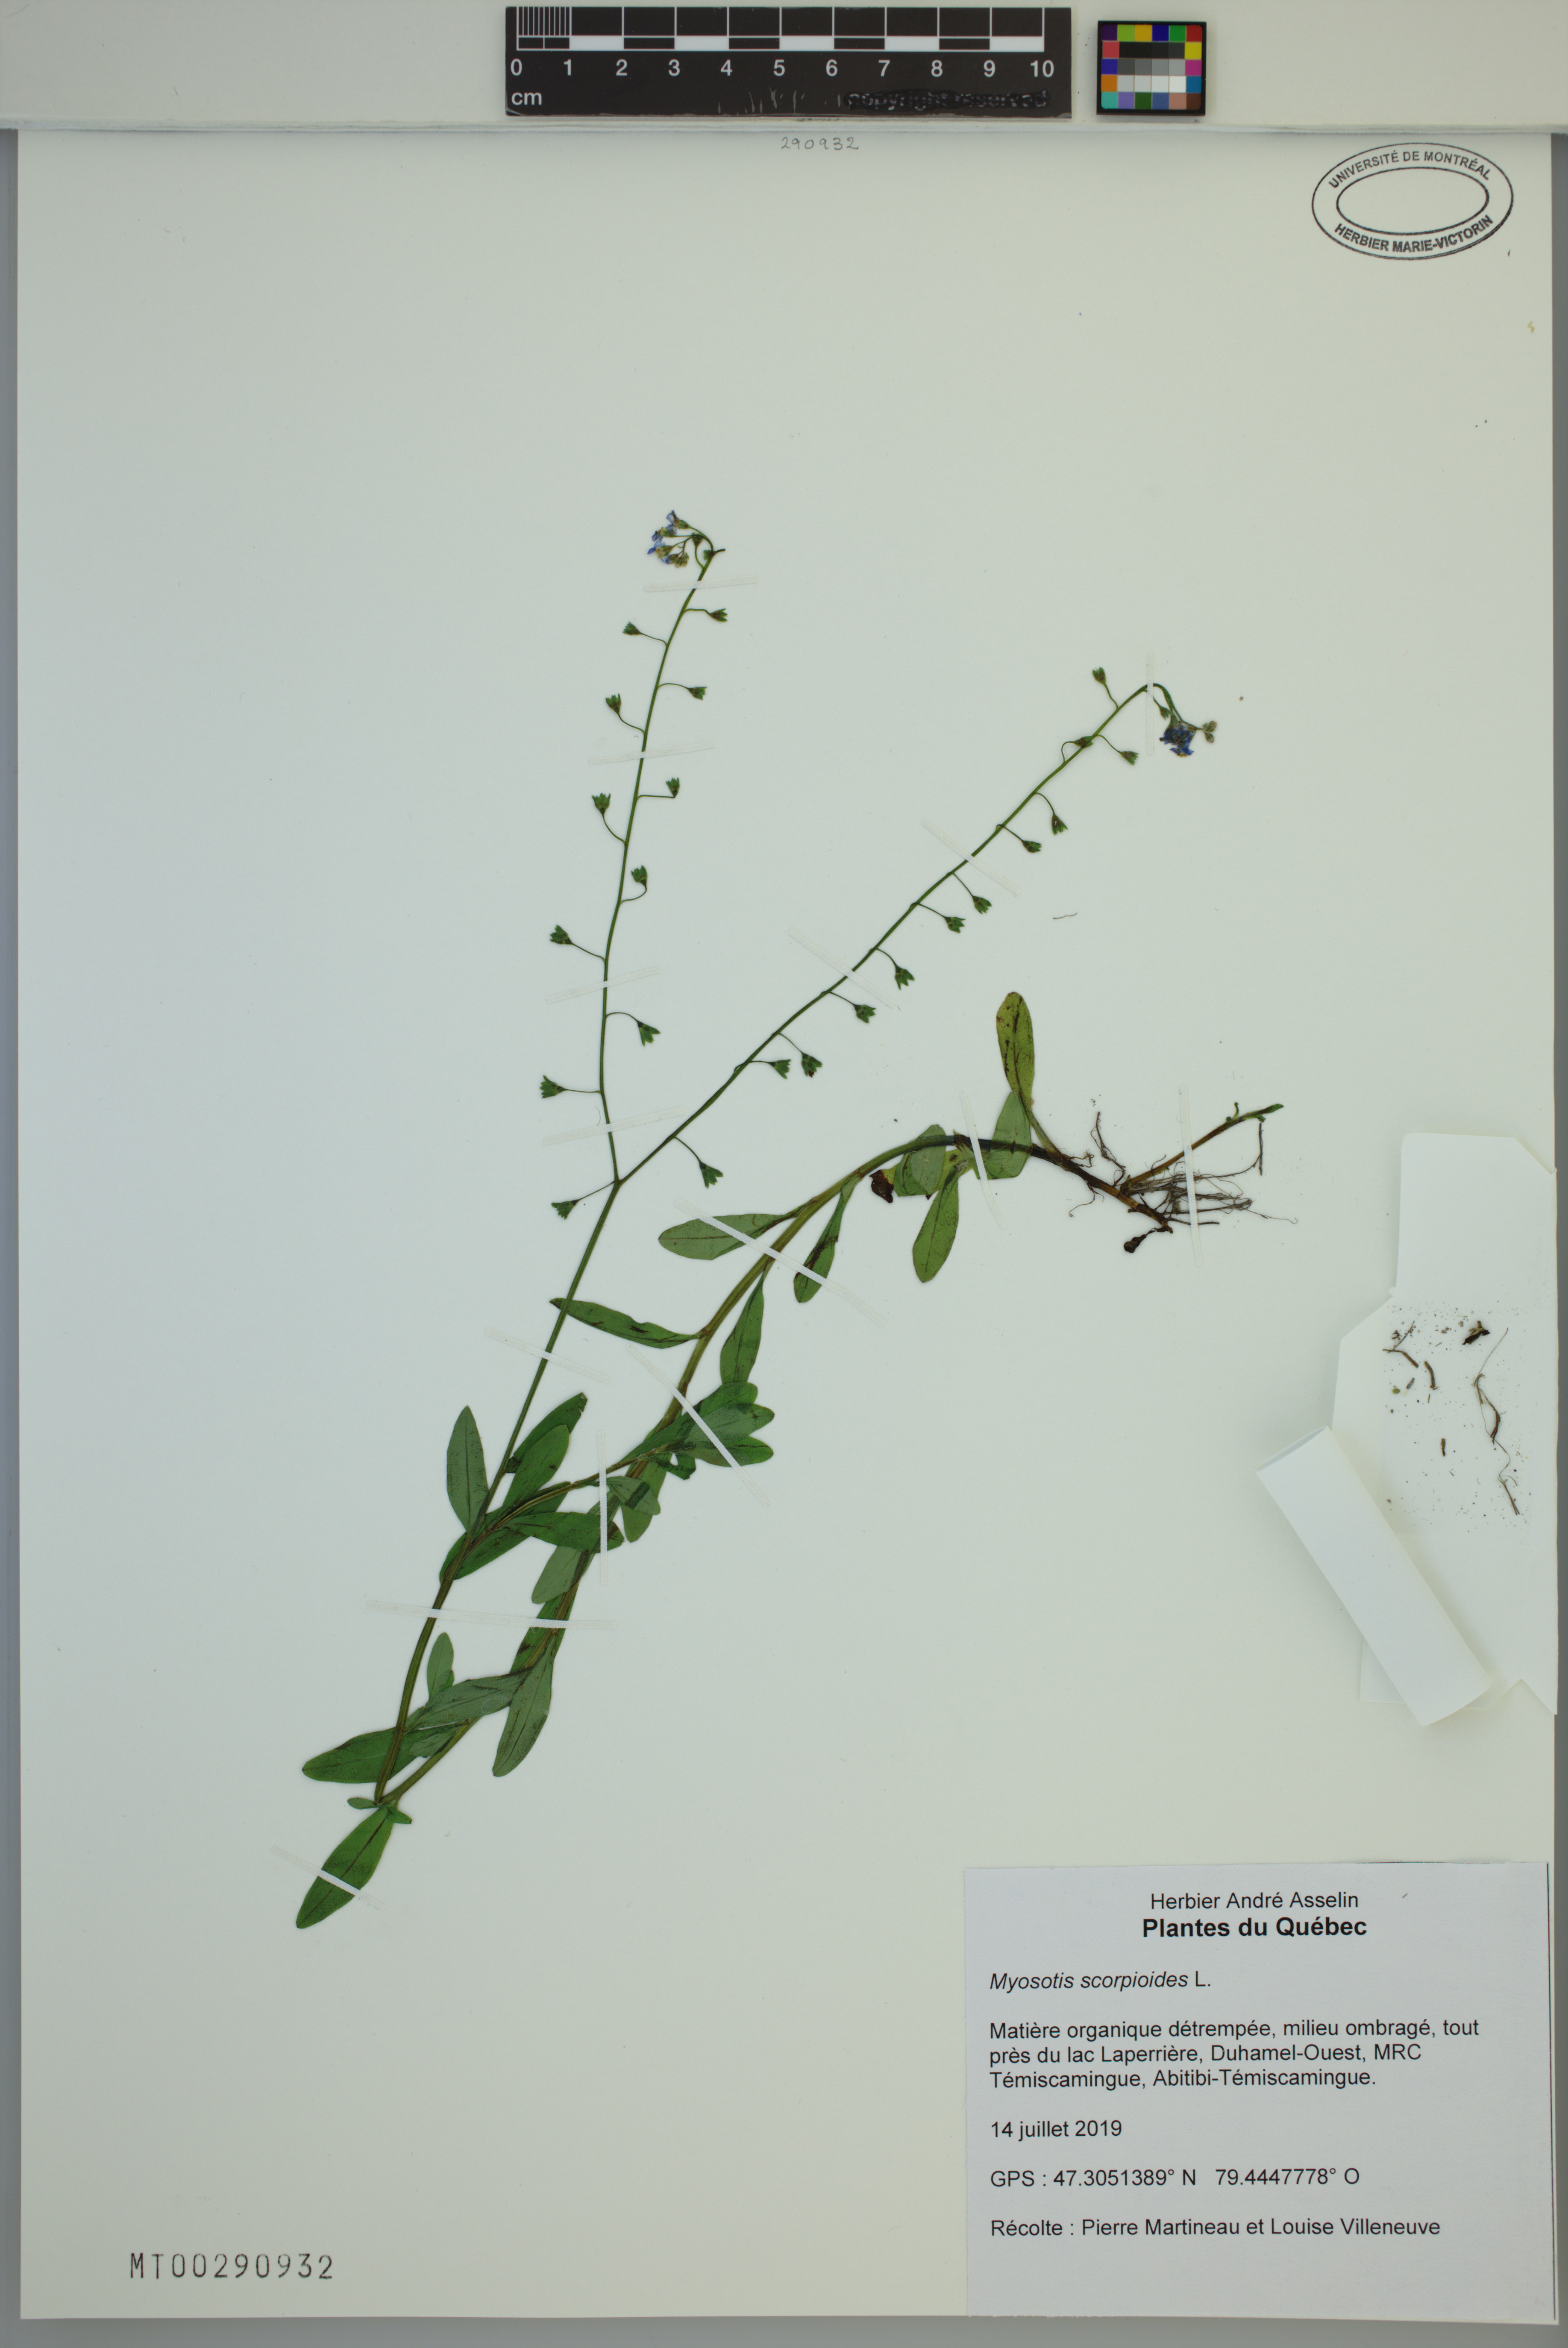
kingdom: Plantae
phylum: Tracheophyta
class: Magnoliopsida
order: Boraginales
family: Boraginaceae
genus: Myosotis
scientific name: Myosotis scorpioides
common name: Water forget-me-not
